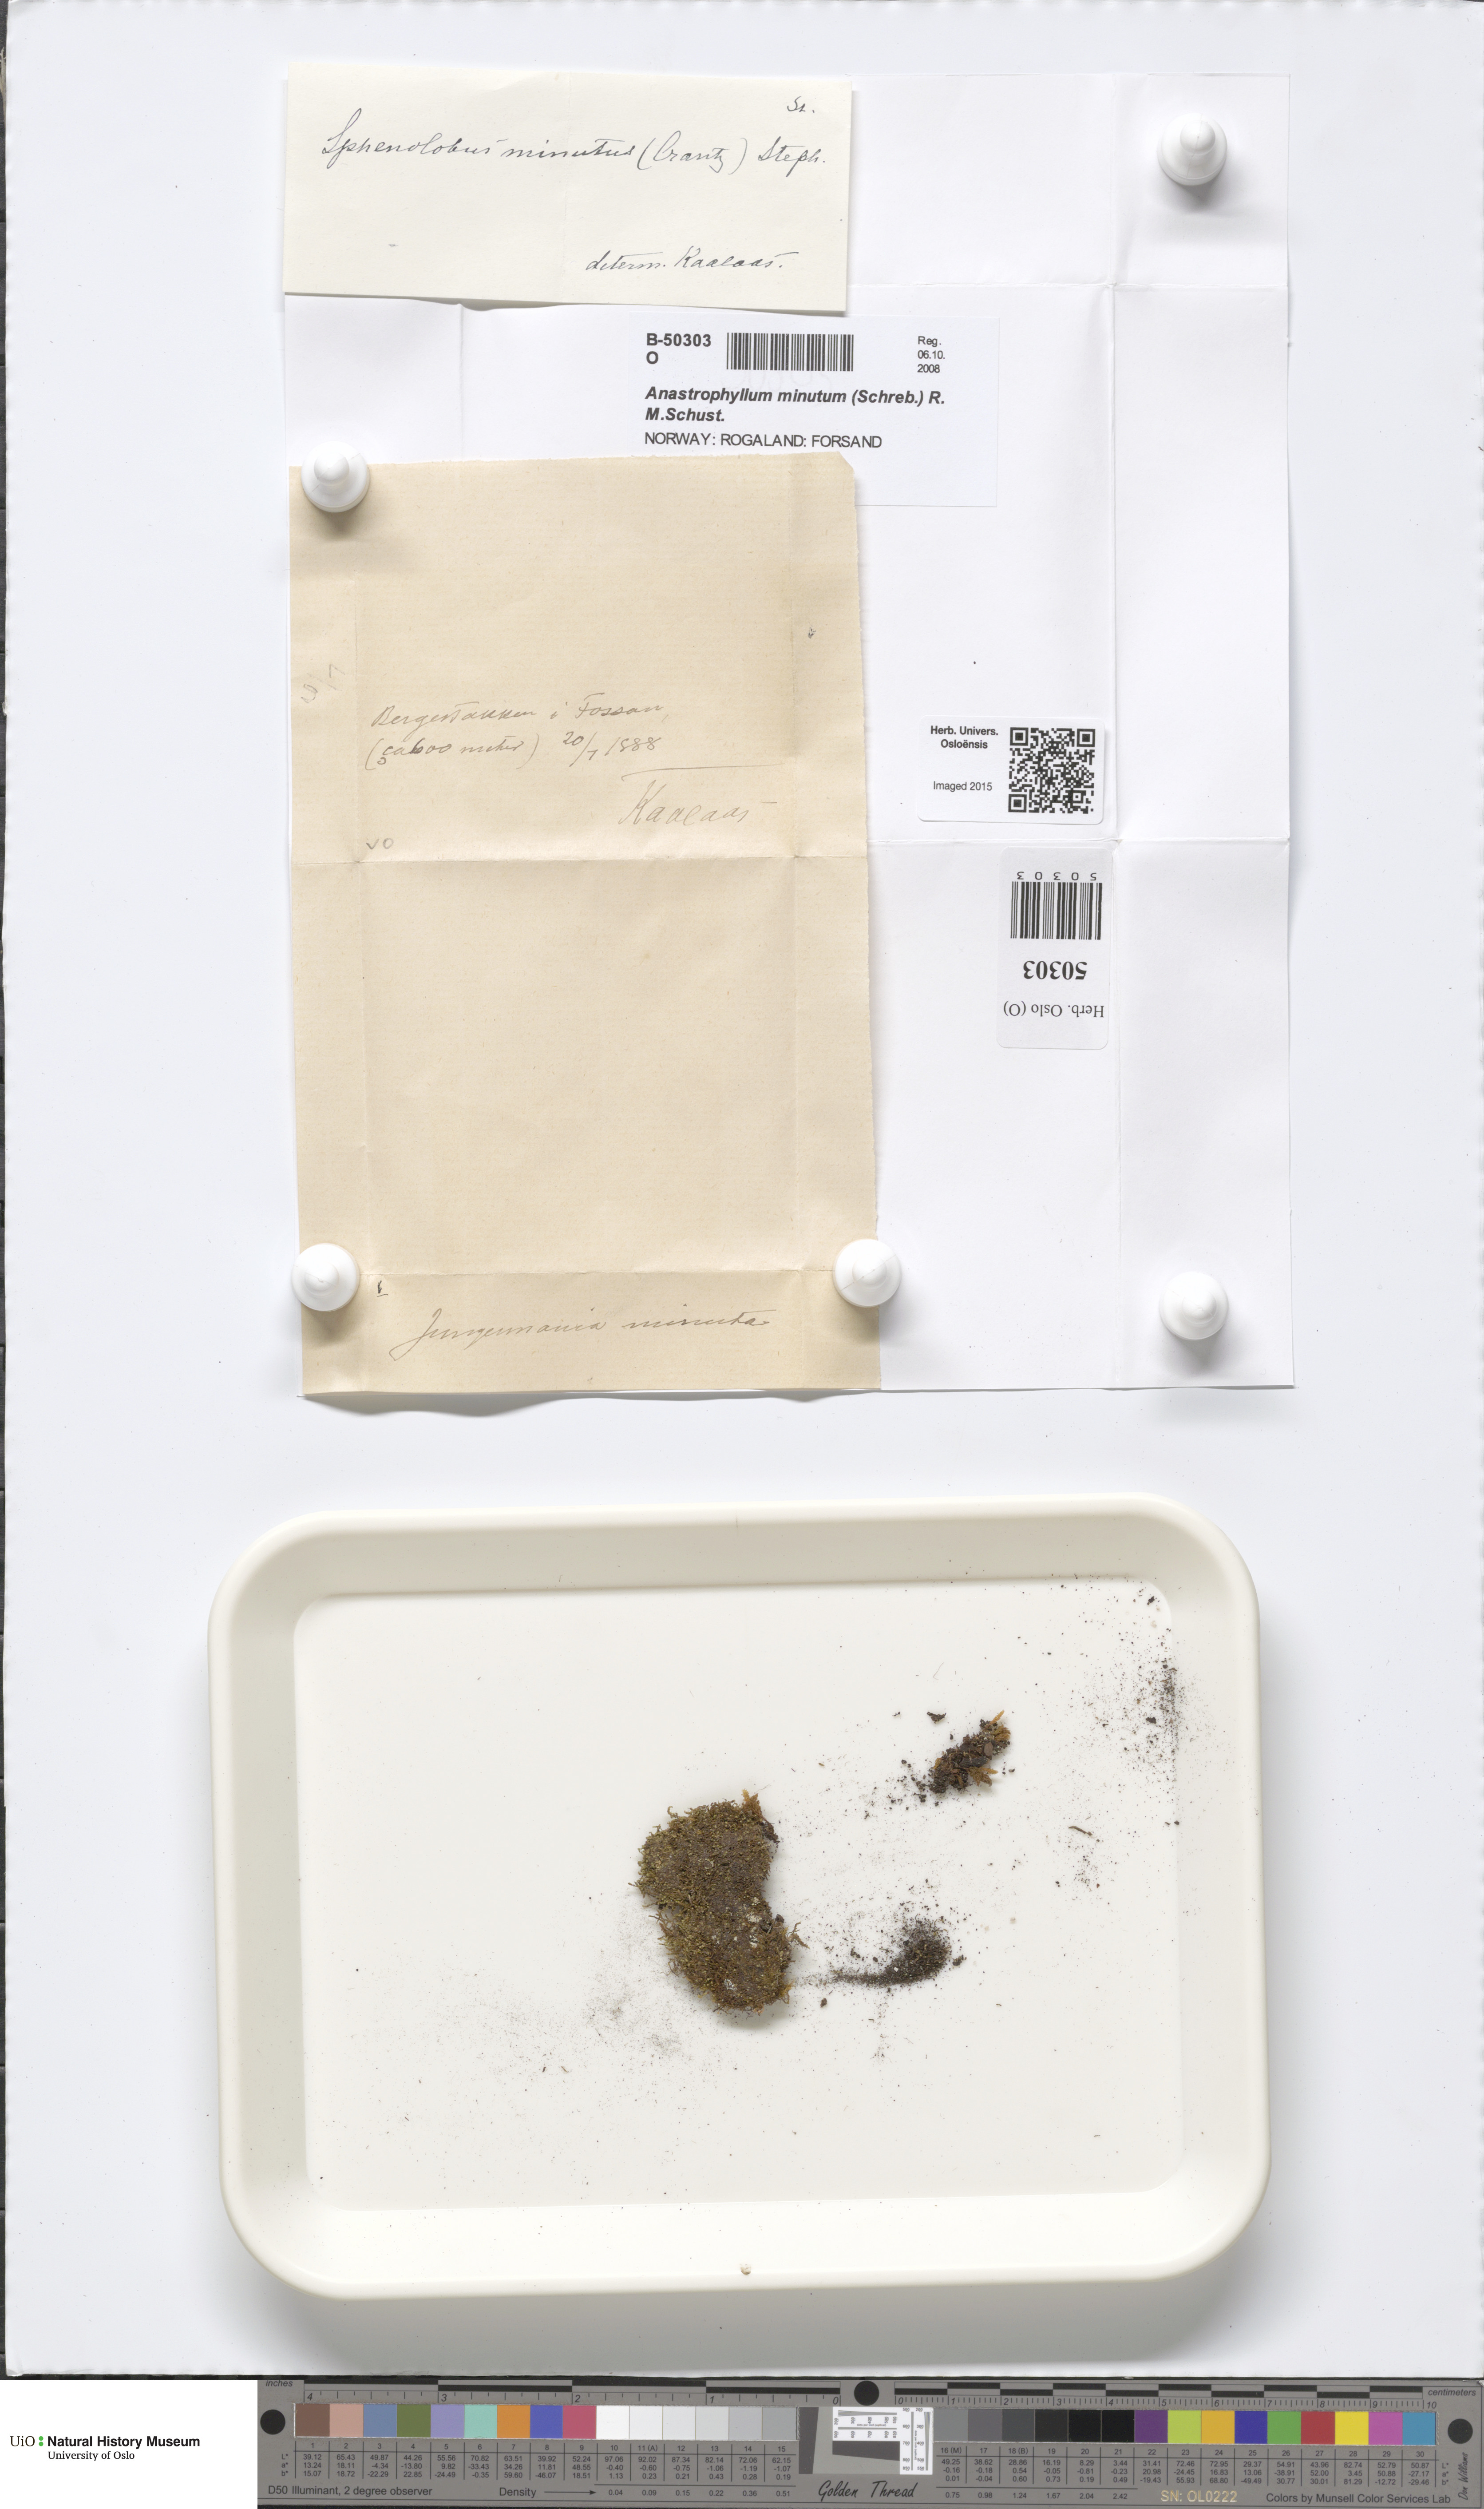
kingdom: Plantae
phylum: Marchantiophyta
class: Jungermanniopsida
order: Jungermanniales
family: Anastrophyllaceae
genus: Sphenolobus
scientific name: Sphenolobus minutus
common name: Comb notchwort
